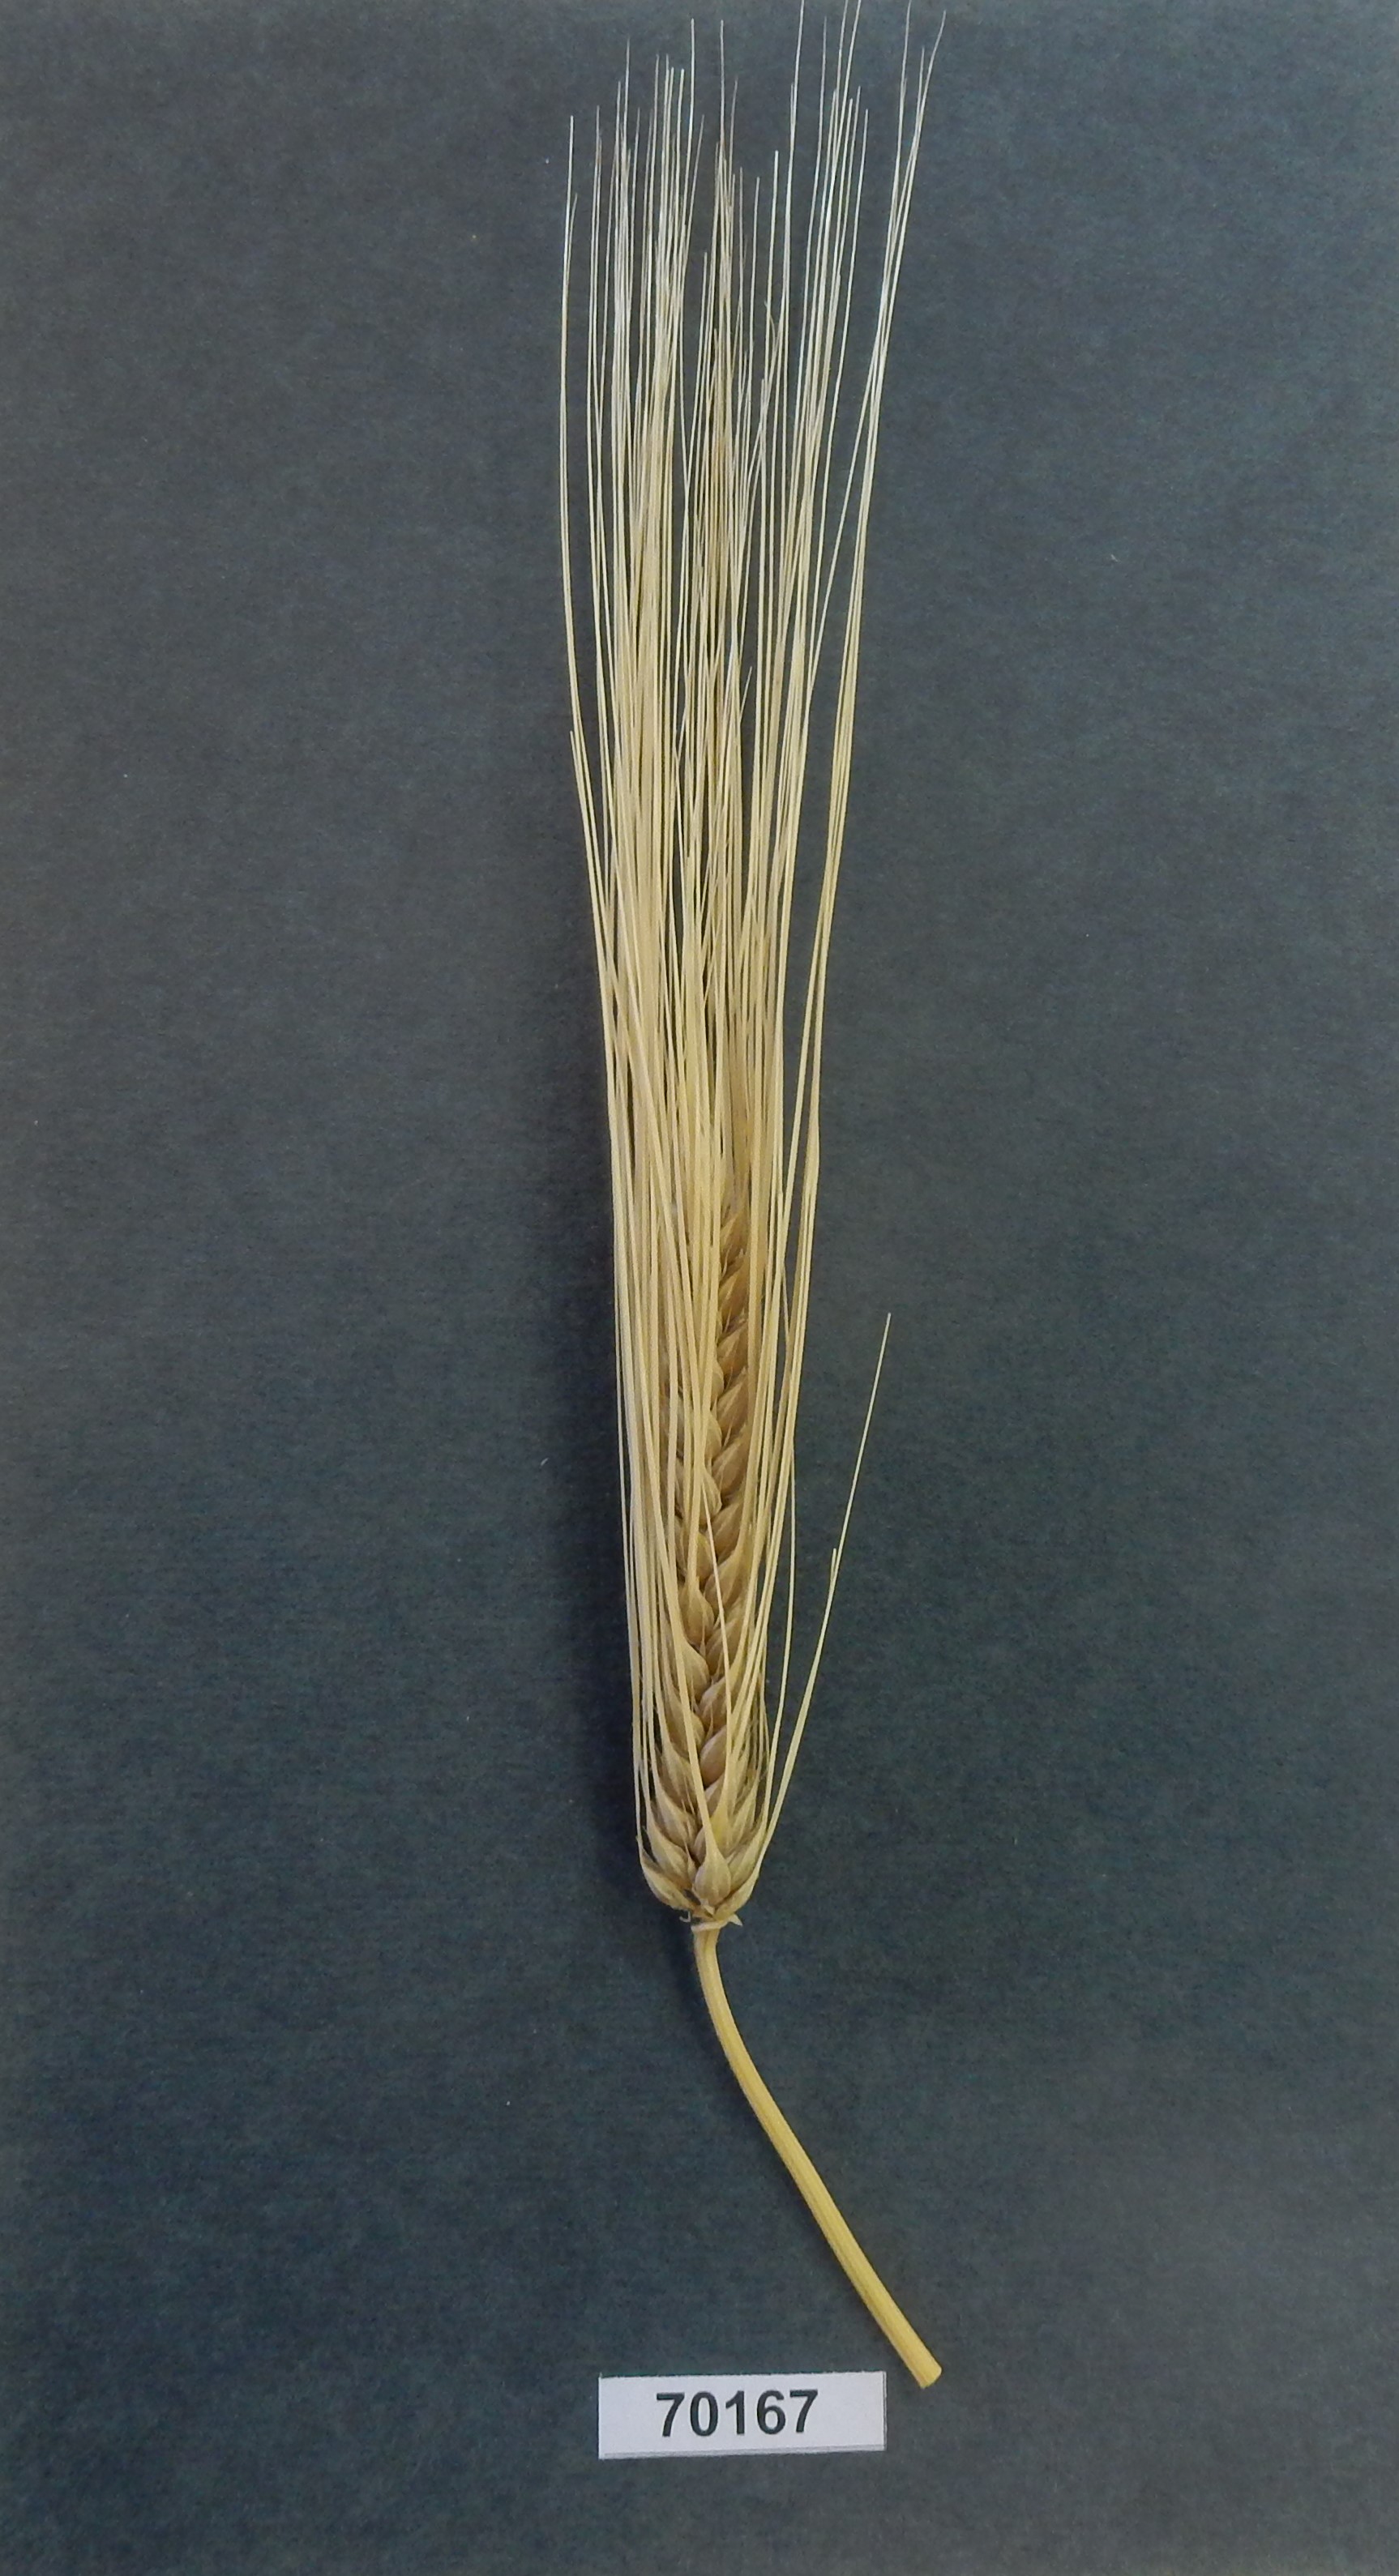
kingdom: Plantae
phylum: Tracheophyta
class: Liliopsida
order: Poales
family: Poaceae
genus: Hordeum
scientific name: Hordeum
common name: Barley
